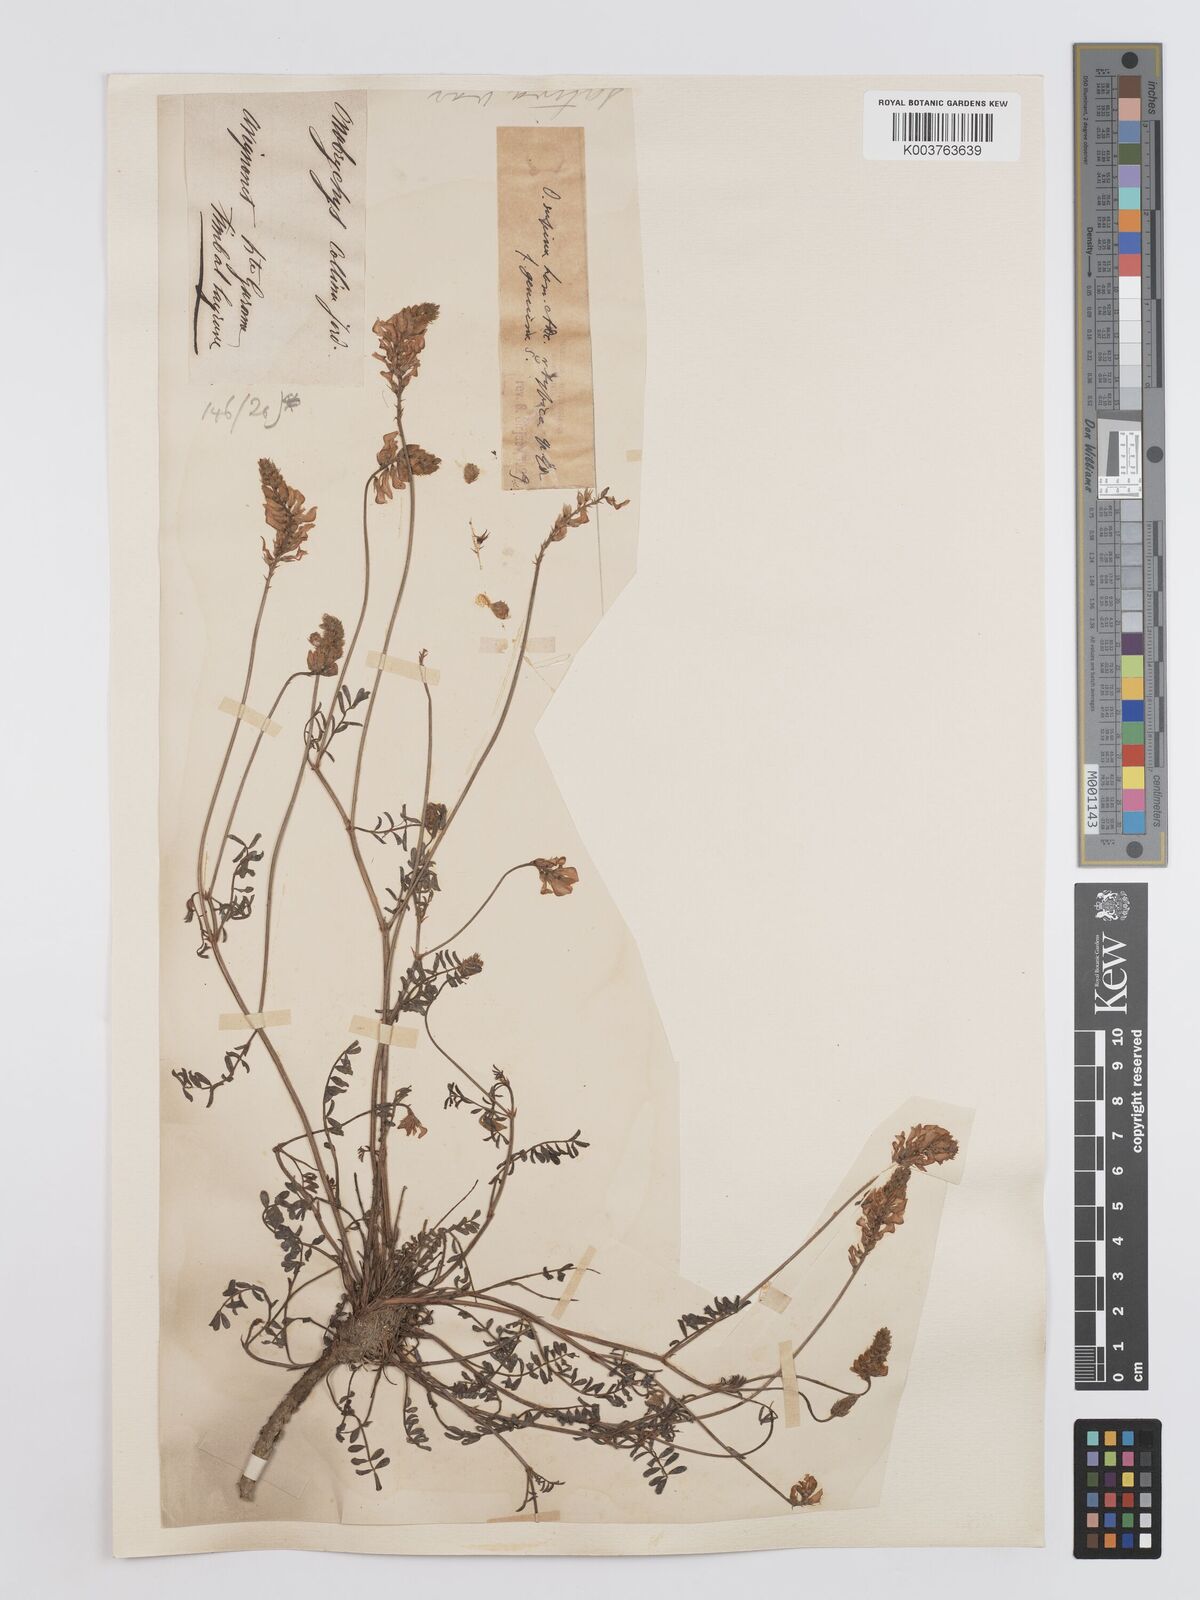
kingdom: Plantae
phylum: Tracheophyta
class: Magnoliopsida
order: Fabales
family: Fabaceae
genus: Onobrychis
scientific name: Onobrychis supina
